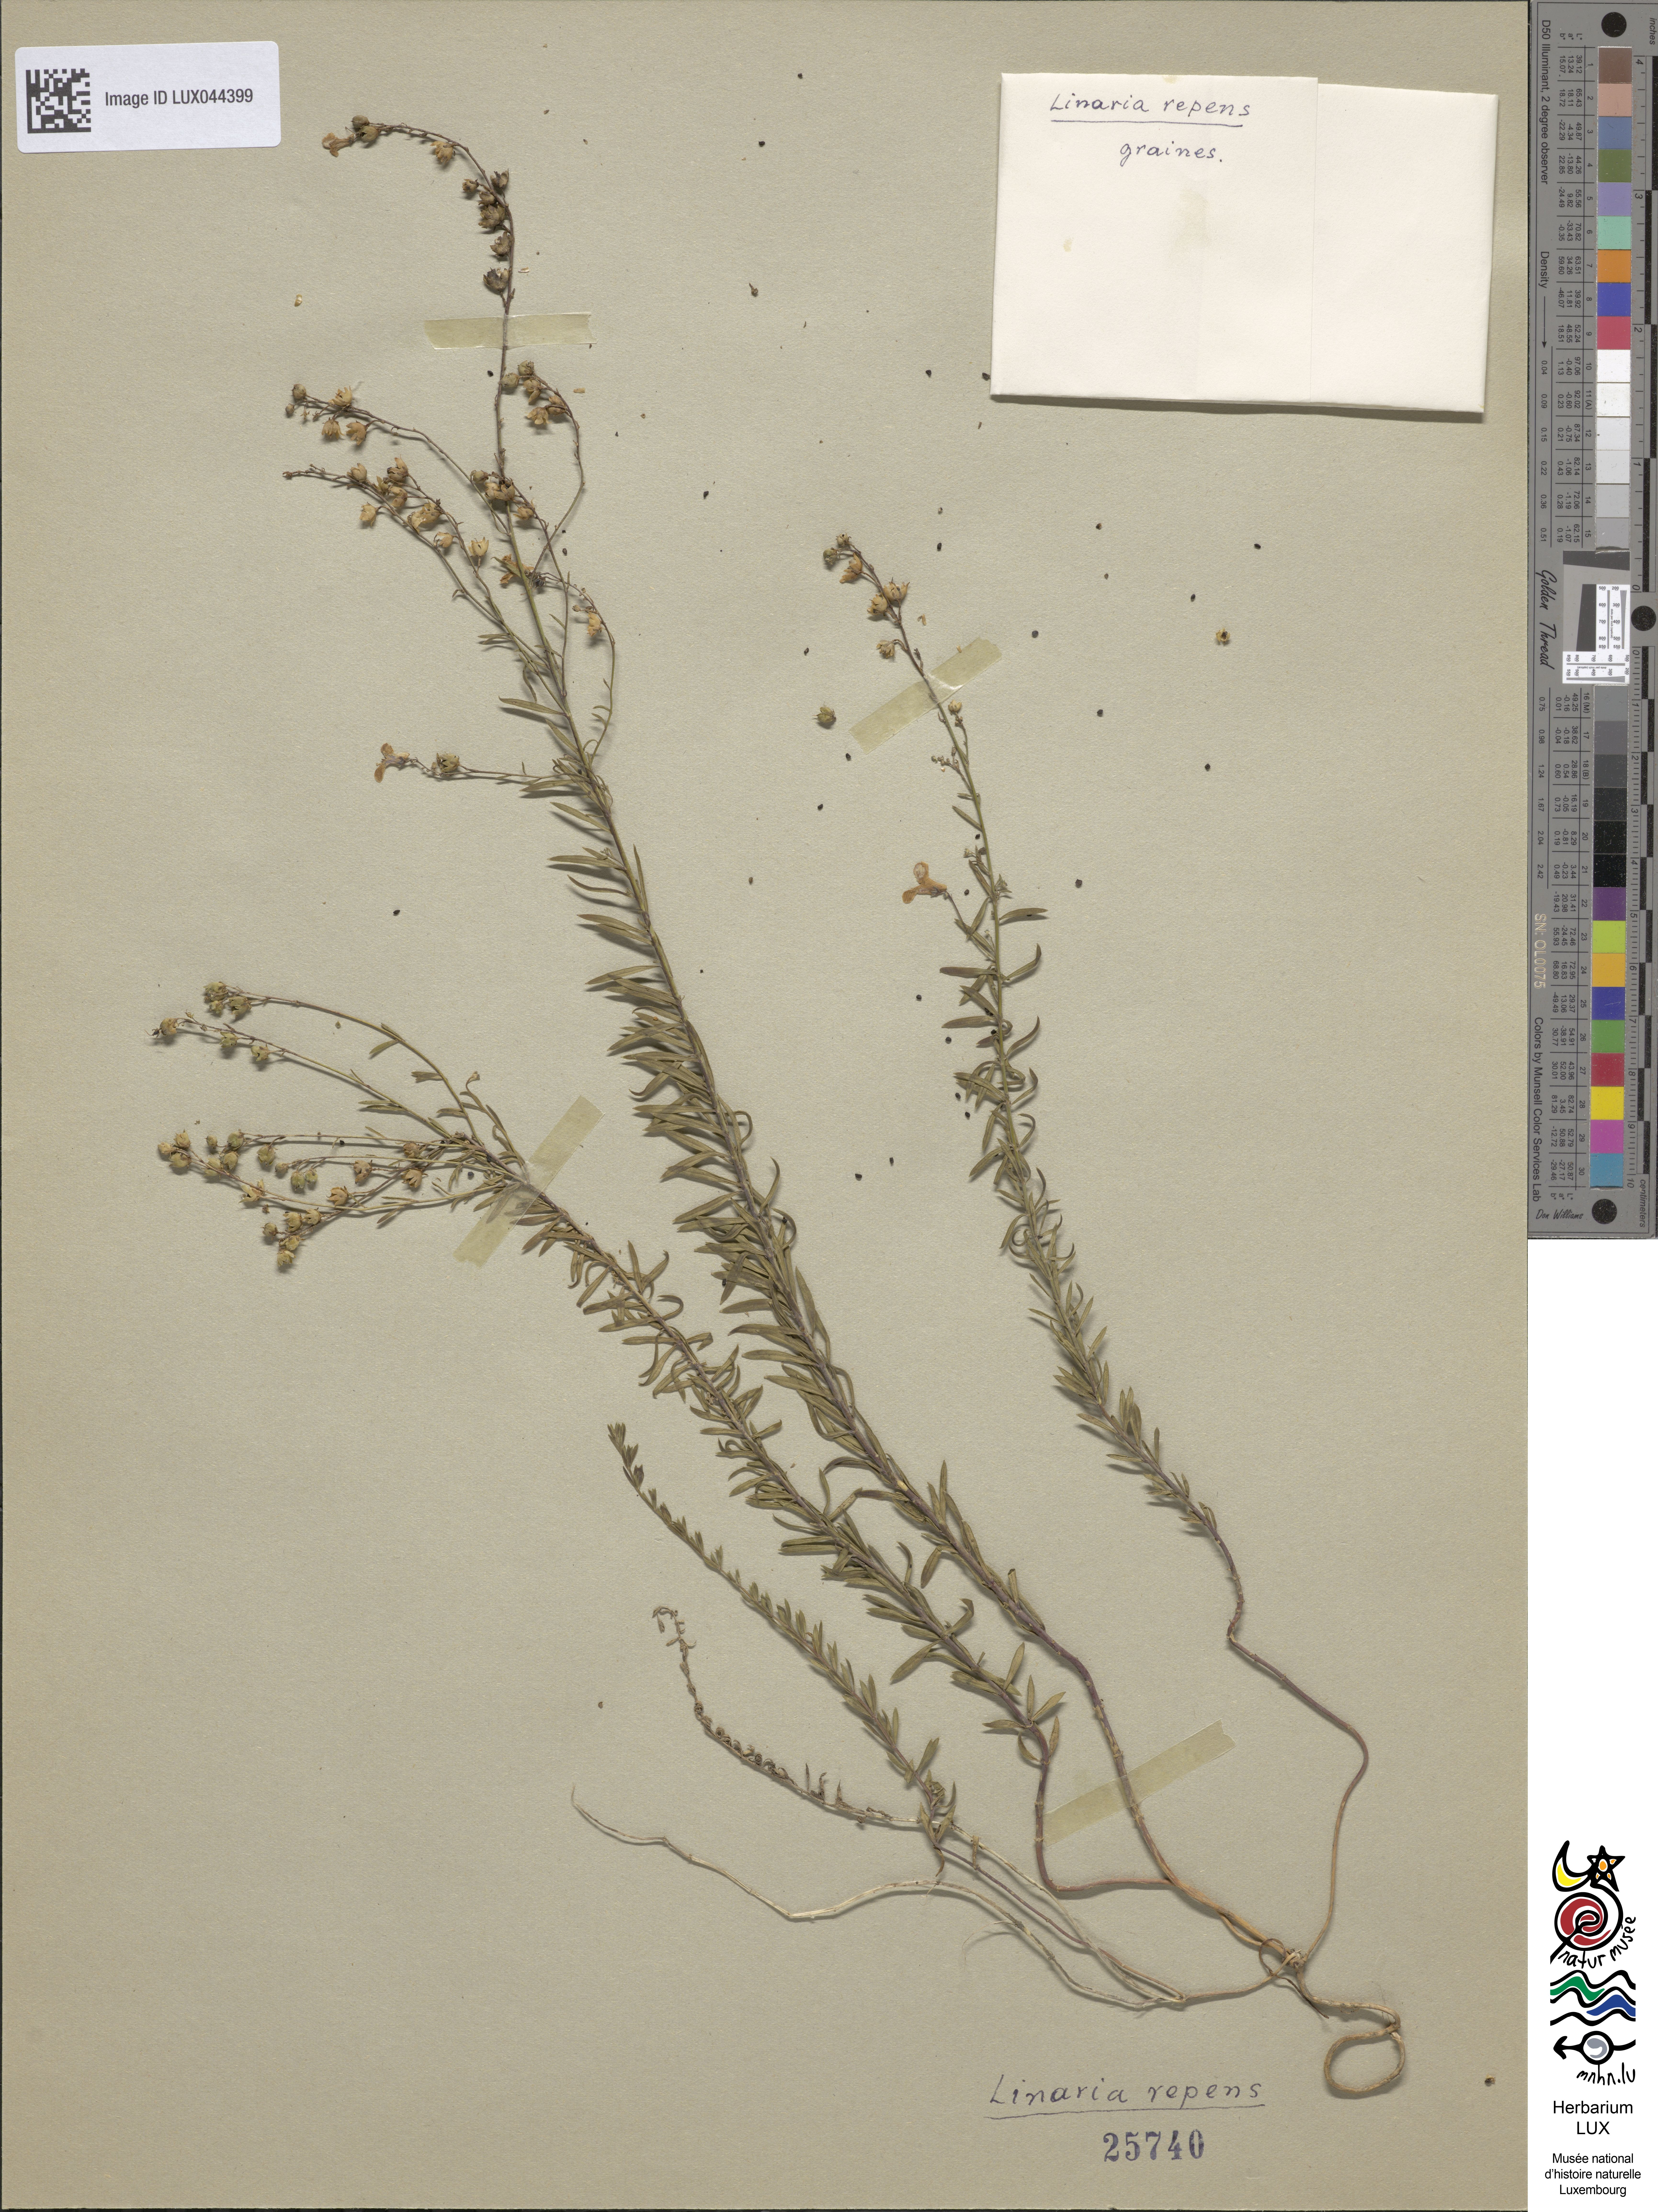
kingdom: Plantae
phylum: Tracheophyta
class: Magnoliopsida
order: Lamiales
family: Plantaginaceae
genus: Linaria
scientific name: Linaria sepium
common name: Hybrid toadflax
